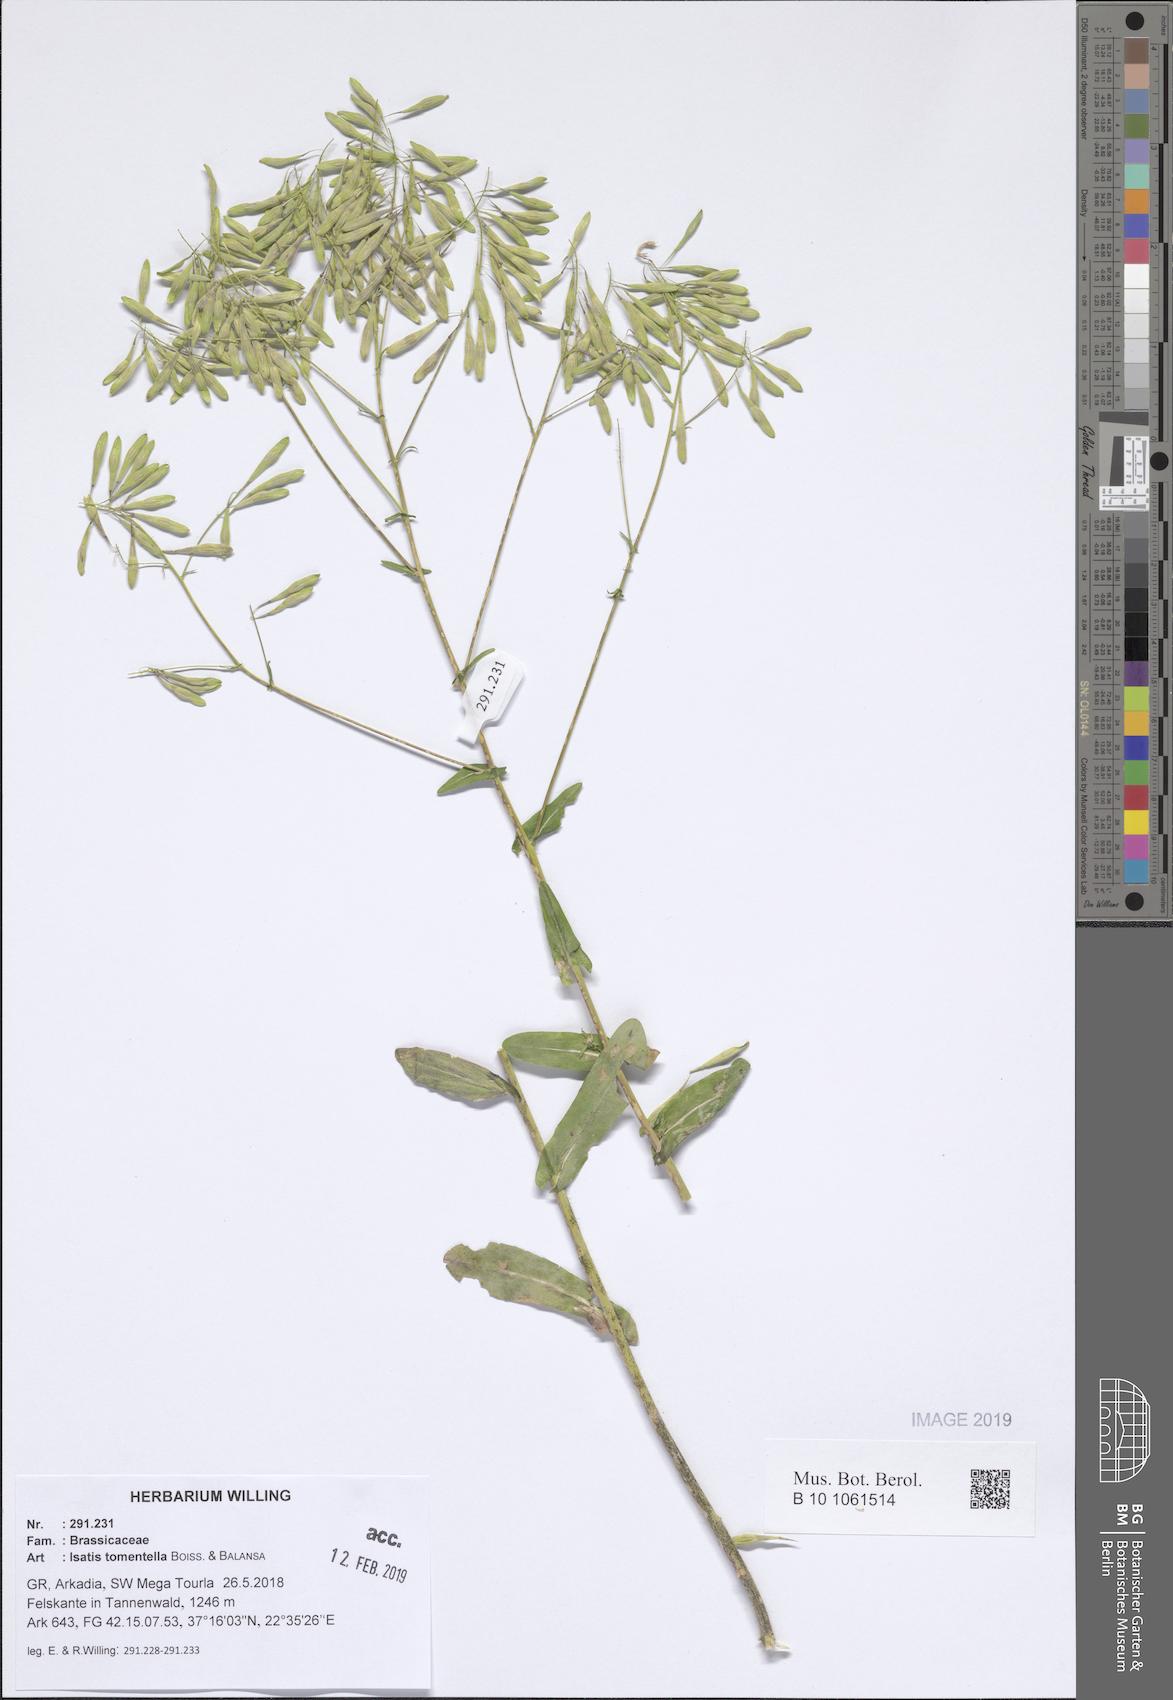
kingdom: Plantae
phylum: Tracheophyta
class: Magnoliopsida
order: Brassicales
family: Brassicaceae
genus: Isatis
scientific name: Isatis tomentella
